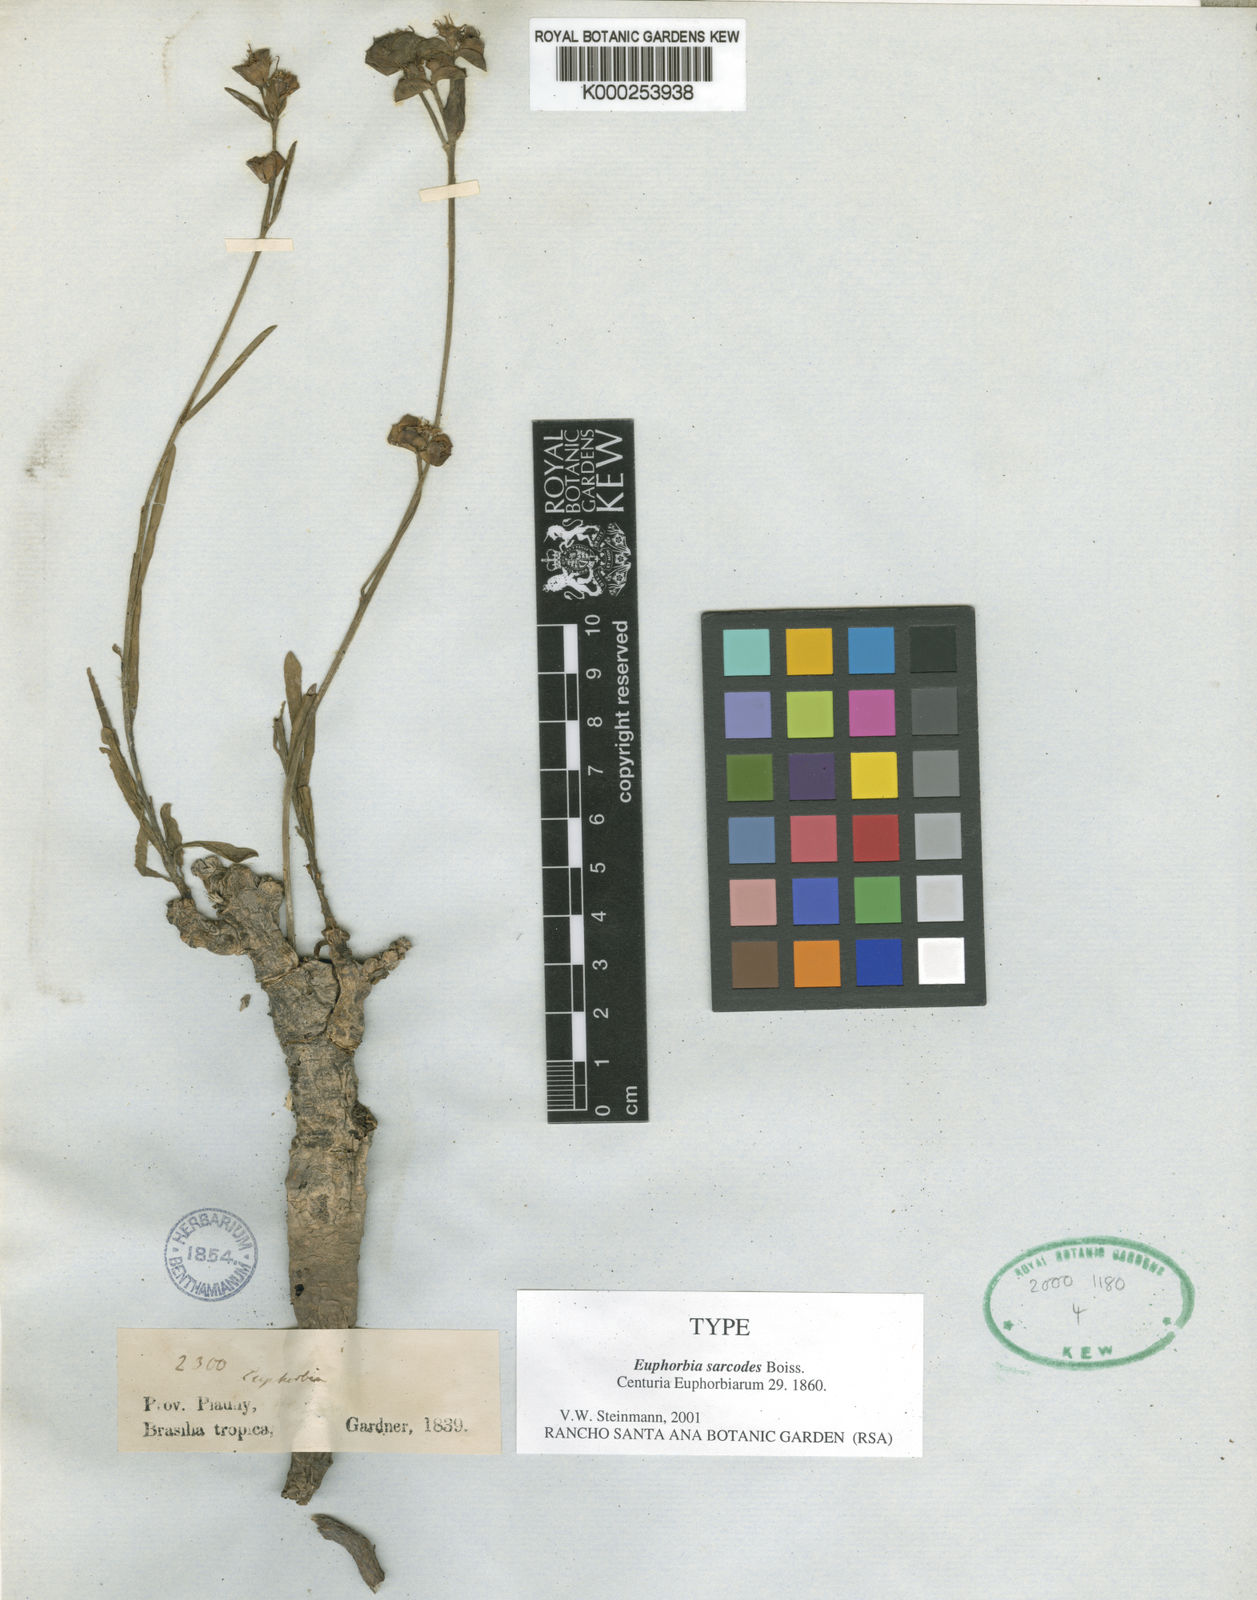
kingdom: Plantae
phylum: Tracheophyta
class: Magnoliopsida
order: Malpighiales
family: Euphorbiaceae
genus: Euphorbia
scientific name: Euphorbia sarcodes
